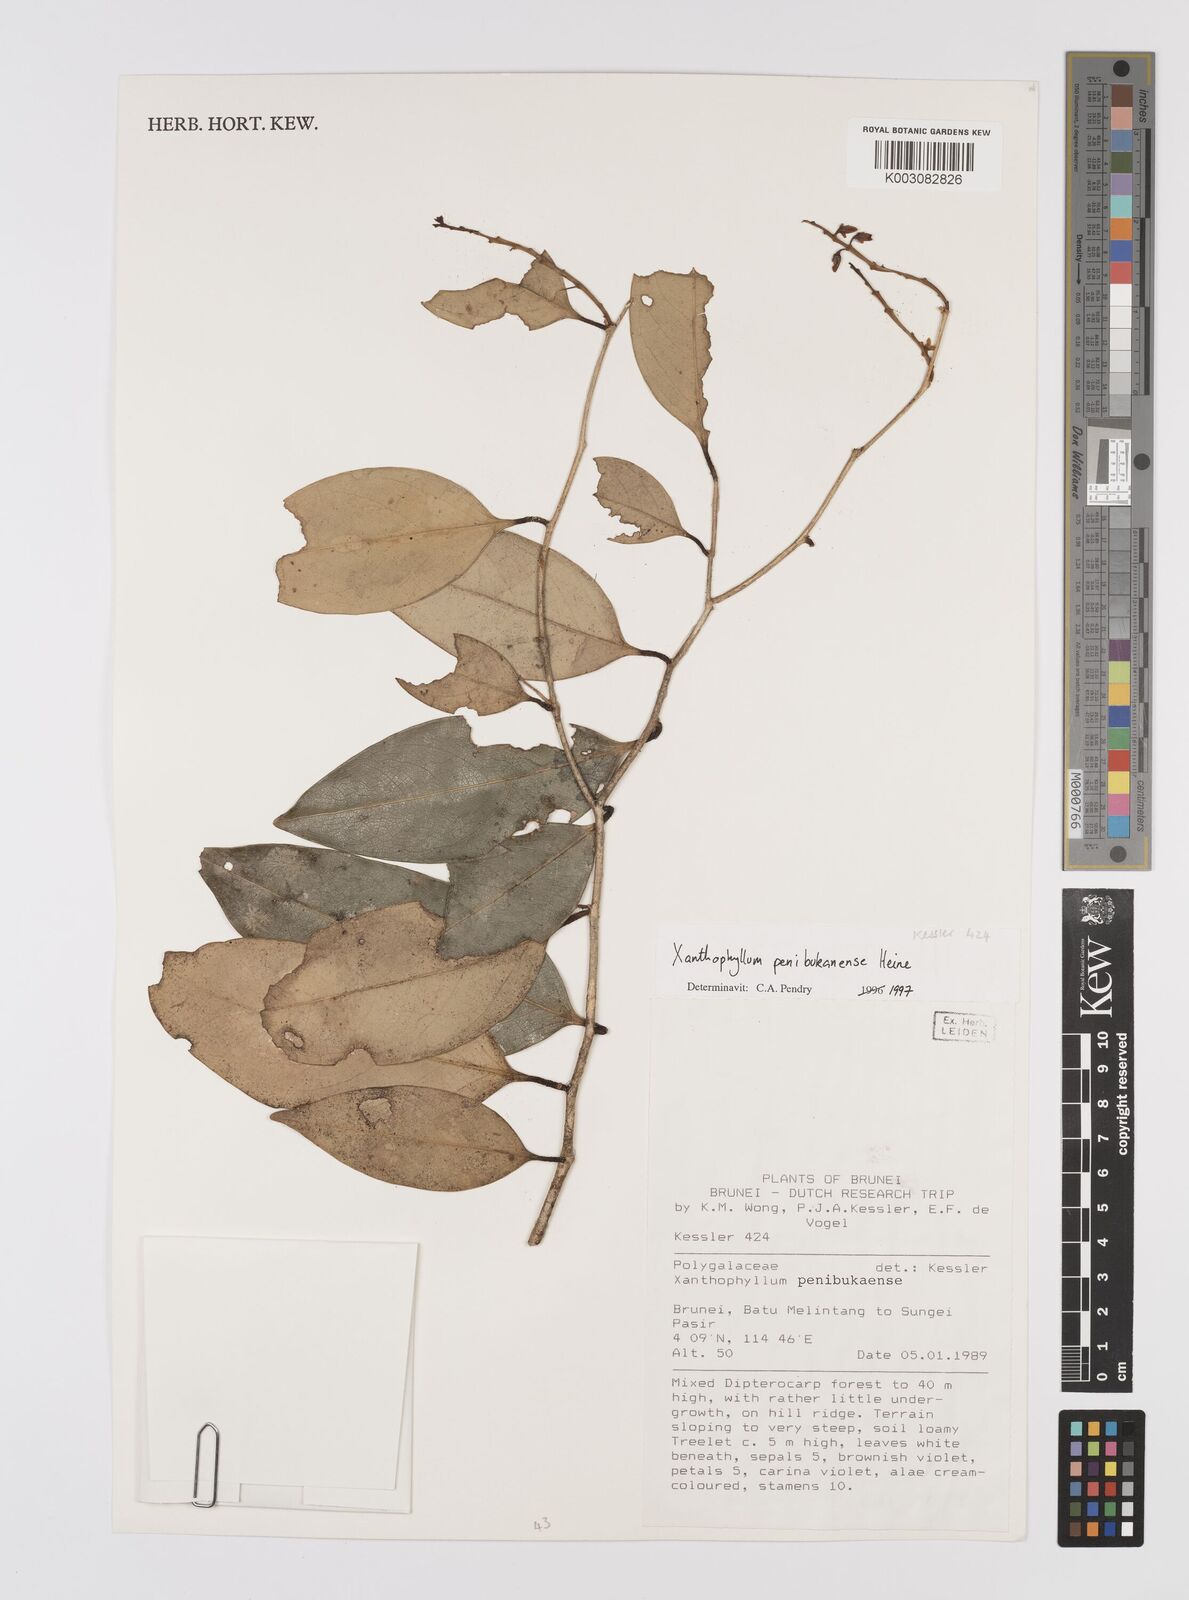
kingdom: Plantae
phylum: Tracheophyta
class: Magnoliopsida
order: Fabales
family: Polygalaceae
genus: Xanthophyllum
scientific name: Xanthophyllum penibukanense
